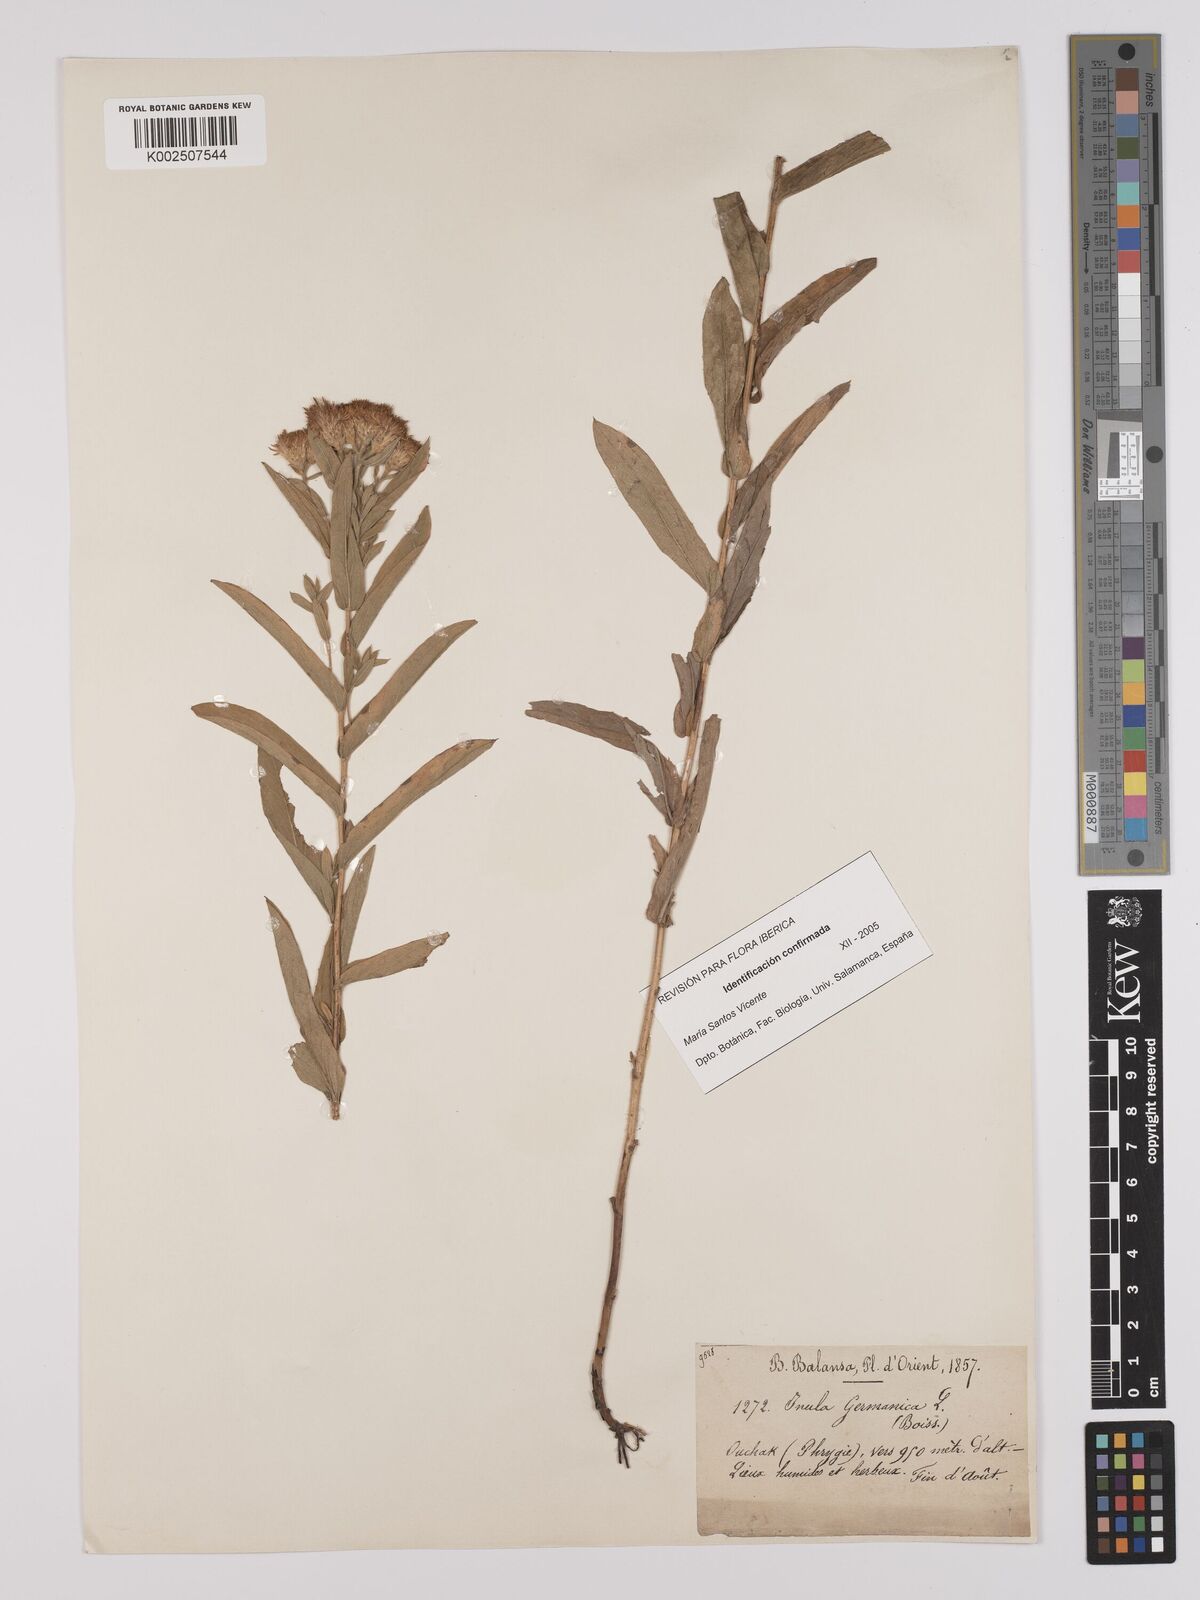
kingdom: Plantae
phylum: Tracheophyta
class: Magnoliopsida
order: Asterales
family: Asteraceae
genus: Pentanema
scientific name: Pentanema germanicum
